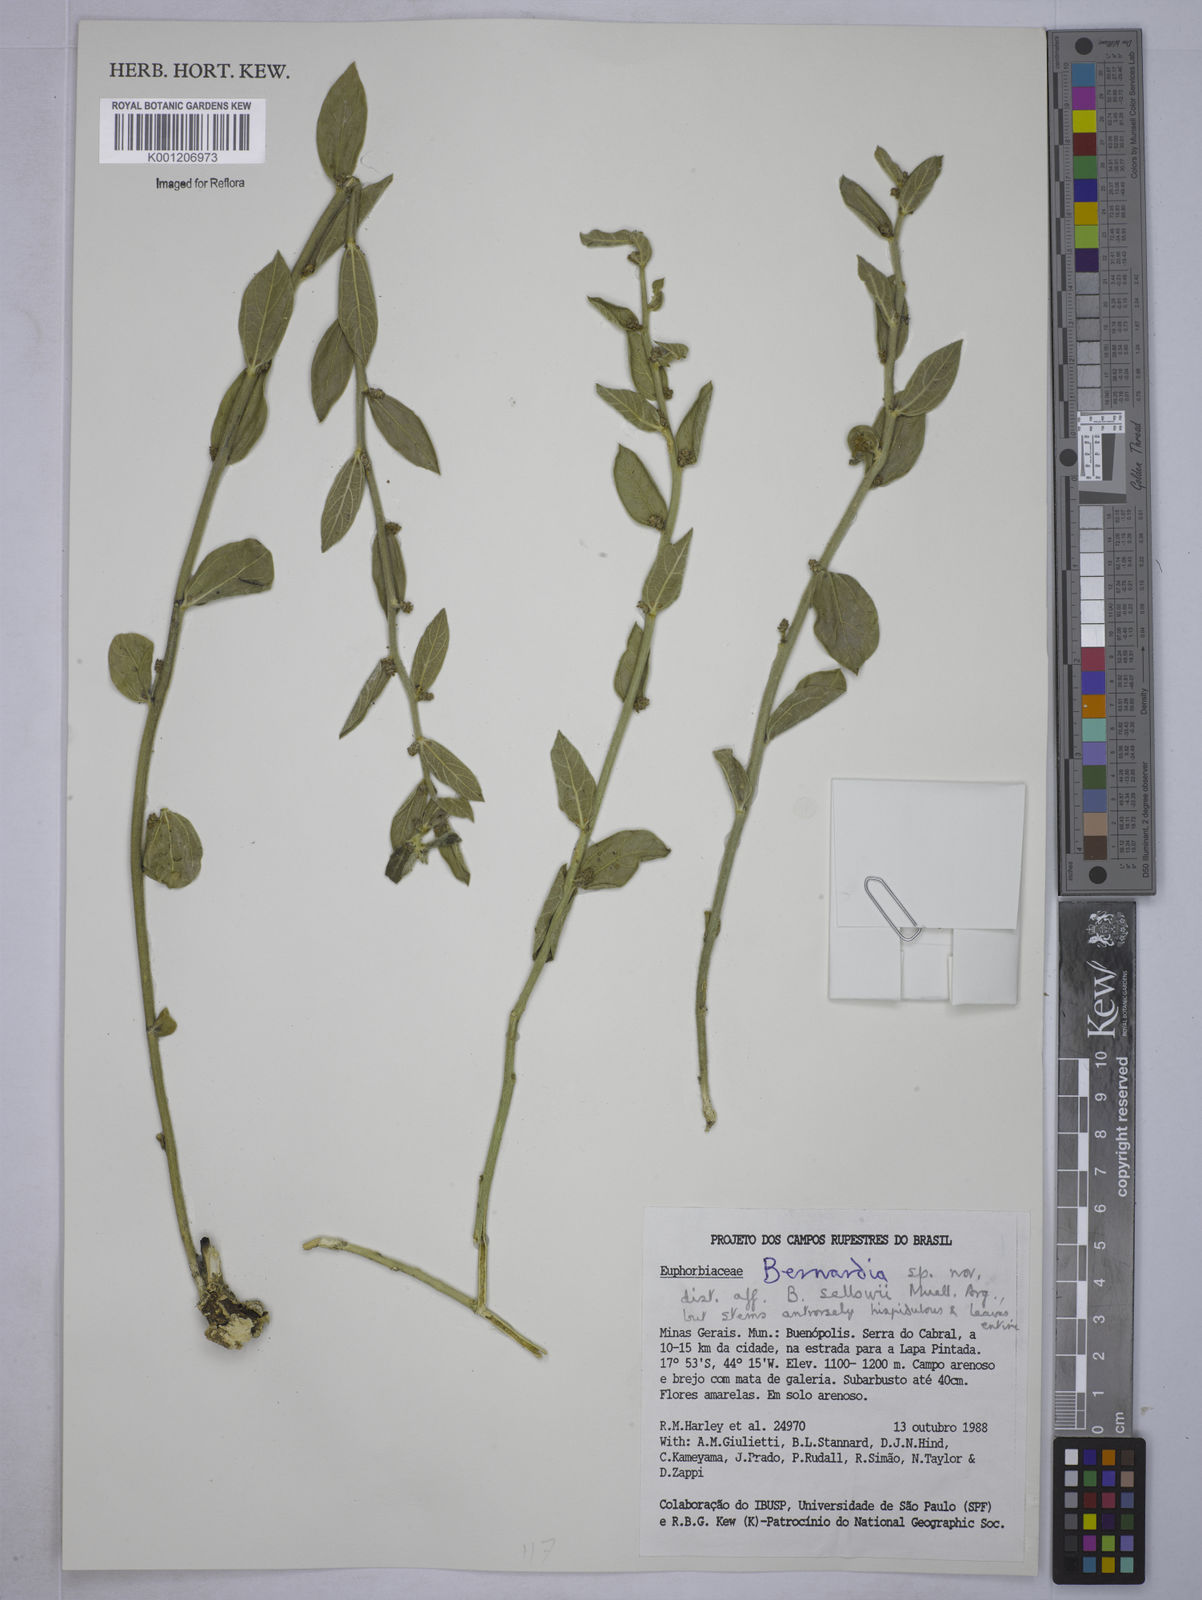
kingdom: Plantae
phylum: Tracheophyta
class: Magnoliopsida
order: Malpighiales
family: Euphorbiaceae
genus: Bernardia
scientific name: Bernardia
